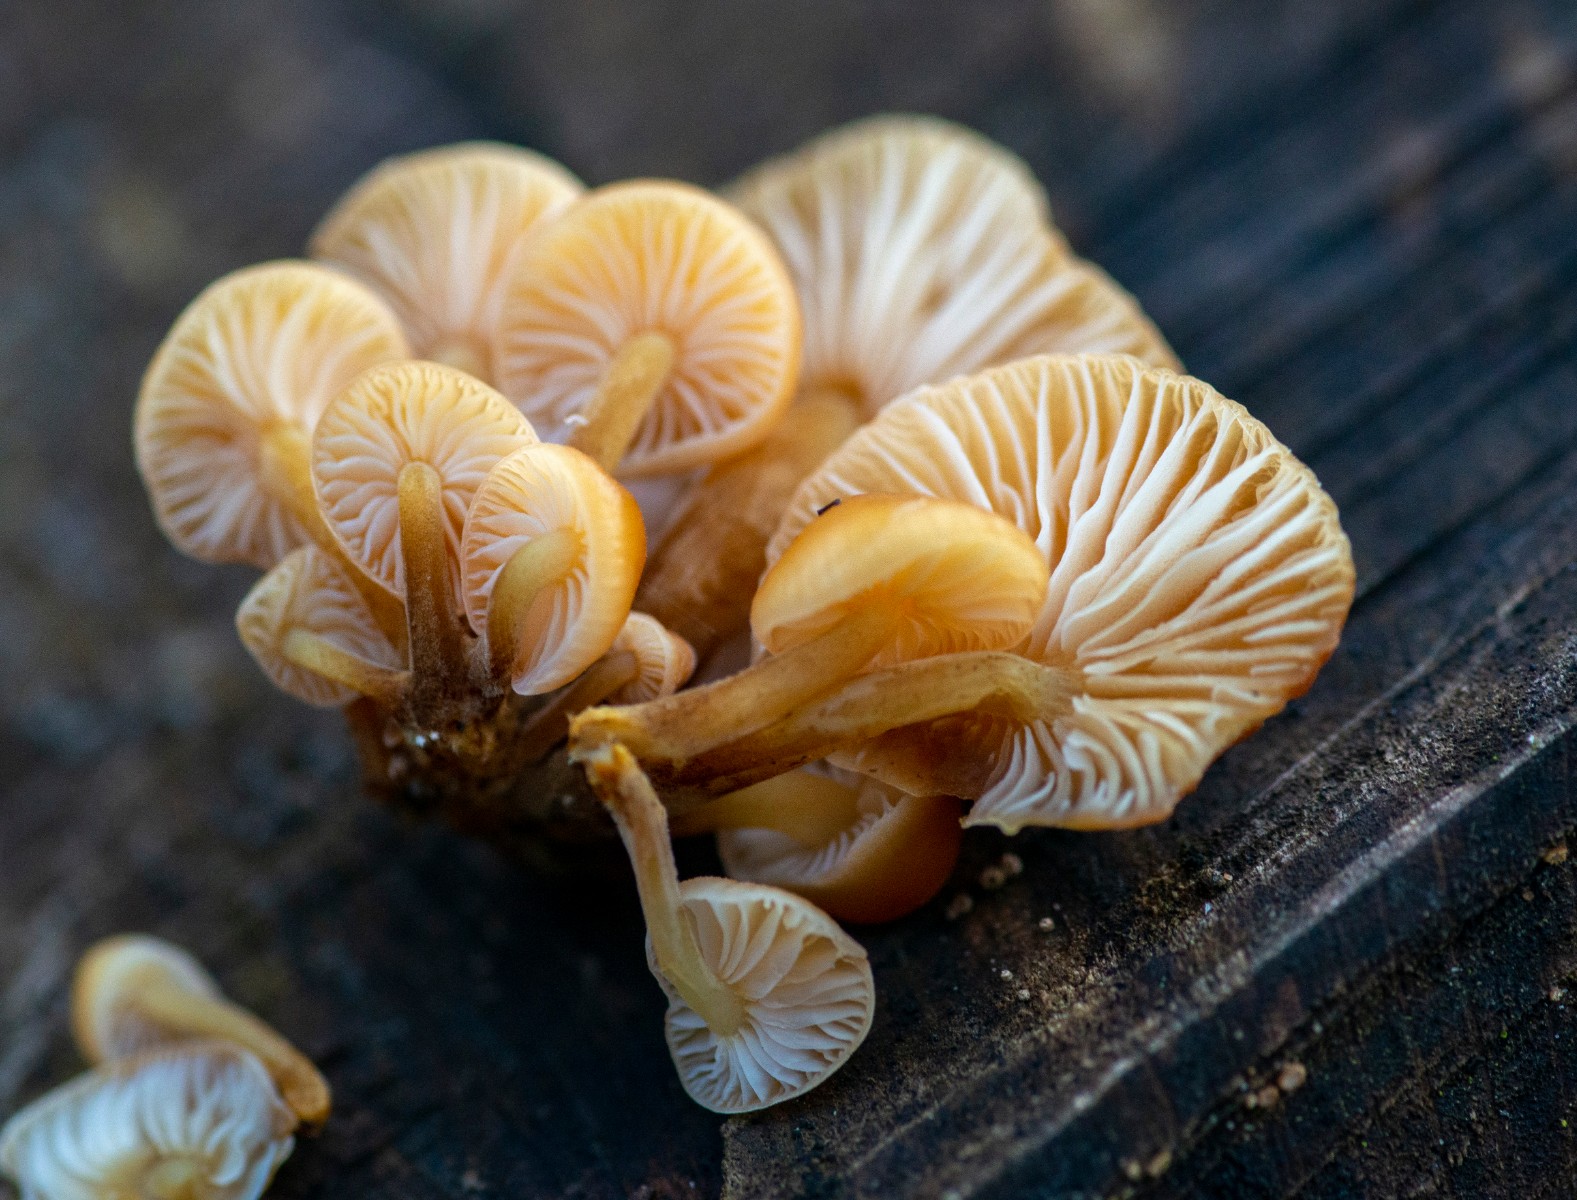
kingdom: Fungi
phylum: Basidiomycota
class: Agaricomycetes
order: Agaricales
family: Physalacriaceae
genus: Flammulina
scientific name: Flammulina velutipes
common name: gul fløjlsfod
